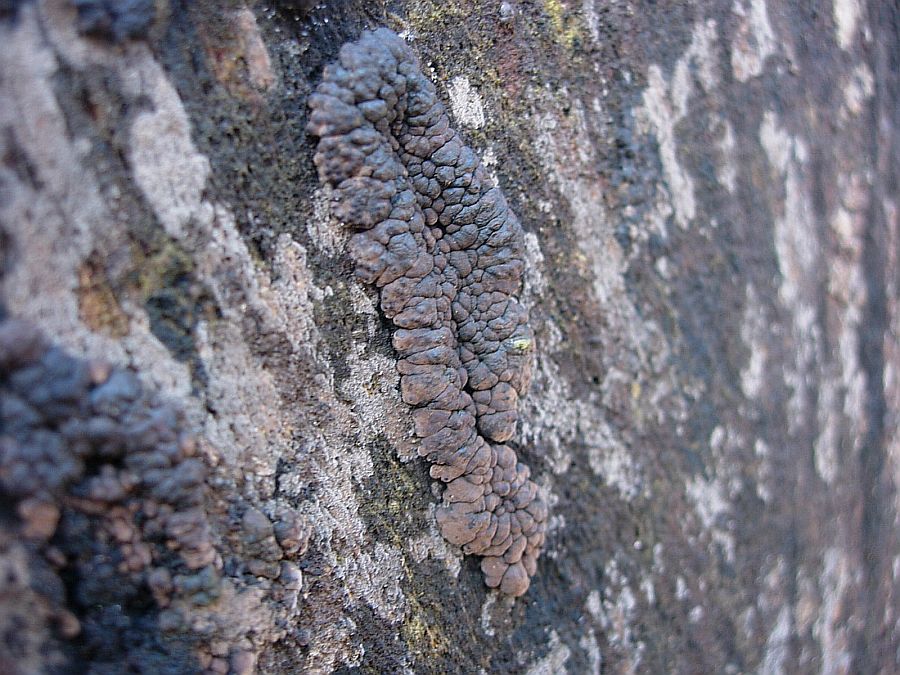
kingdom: Fungi
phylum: Ascomycota
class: Sordariomycetes
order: Xylariales
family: Hypoxylaceae
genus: Jackrogersella
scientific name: Jackrogersella cohaerens
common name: sammenflydende kulbær
